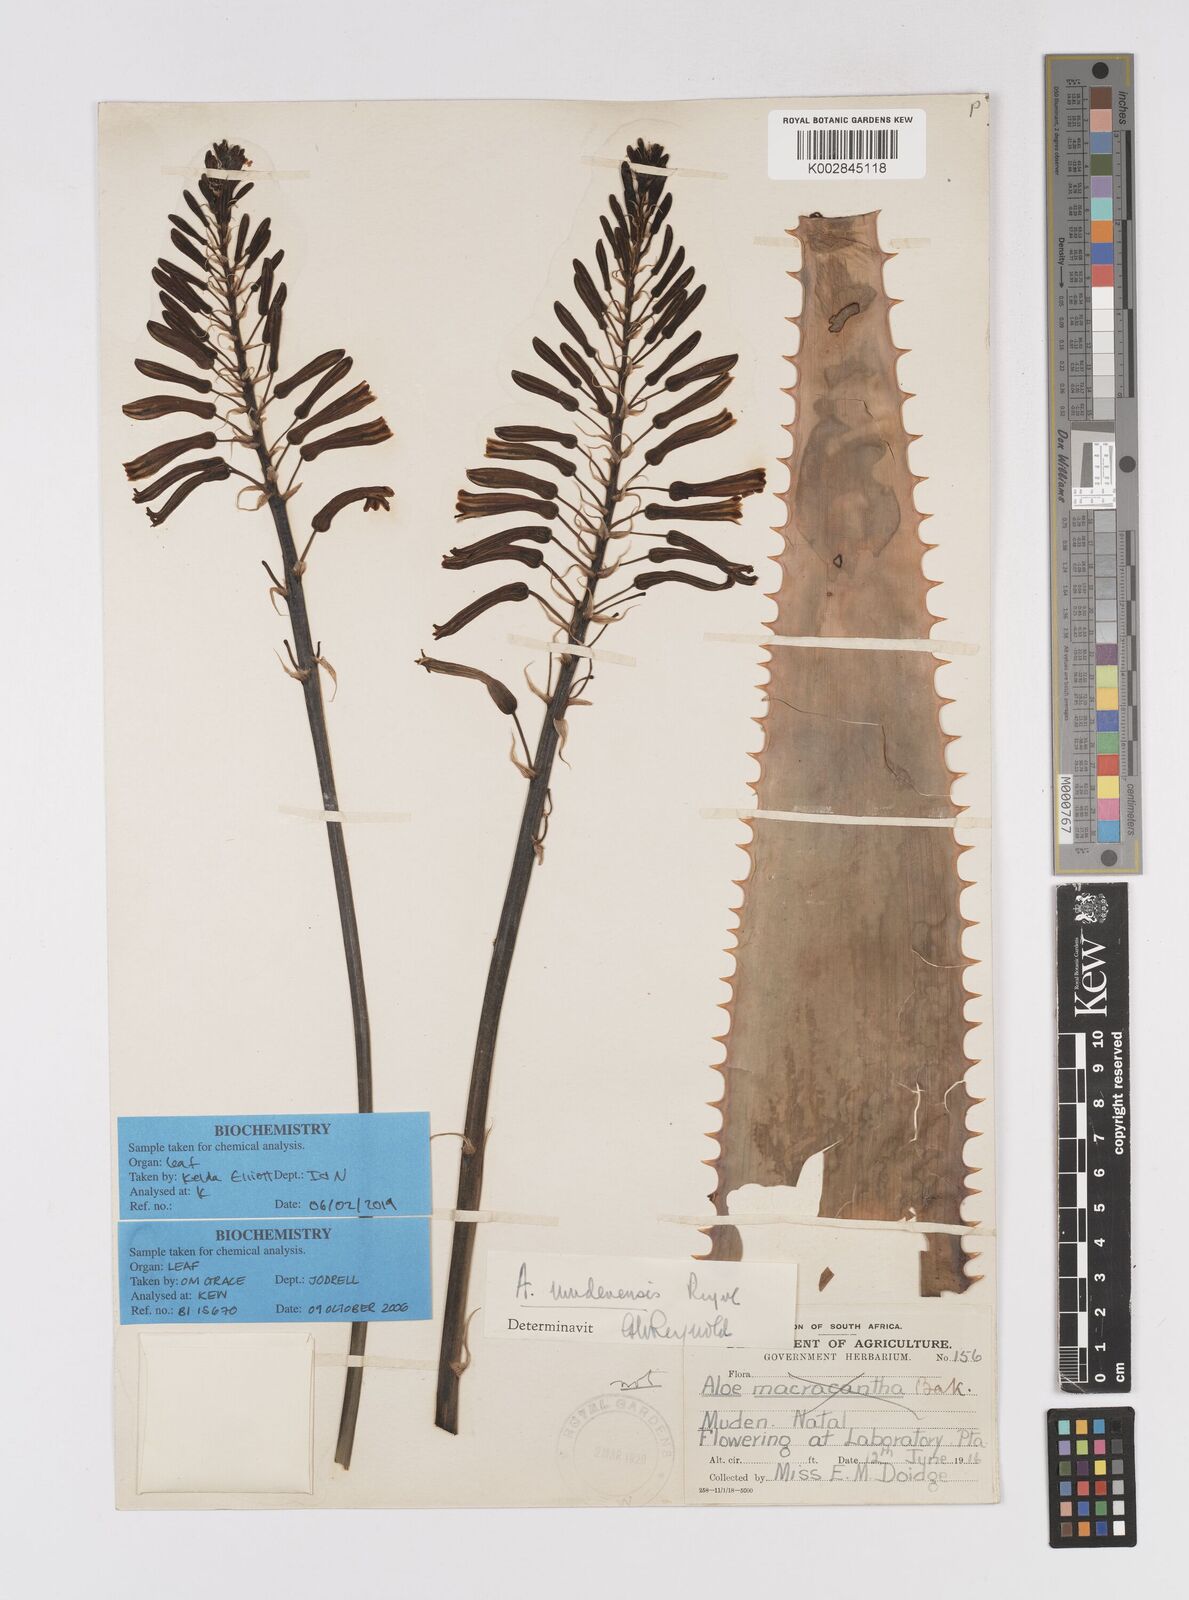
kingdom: Plantae
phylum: Tracheophyta
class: Liliopsida
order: Asparagales
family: Asphodelaceae
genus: Aloe
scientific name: Aloe mudenensis
